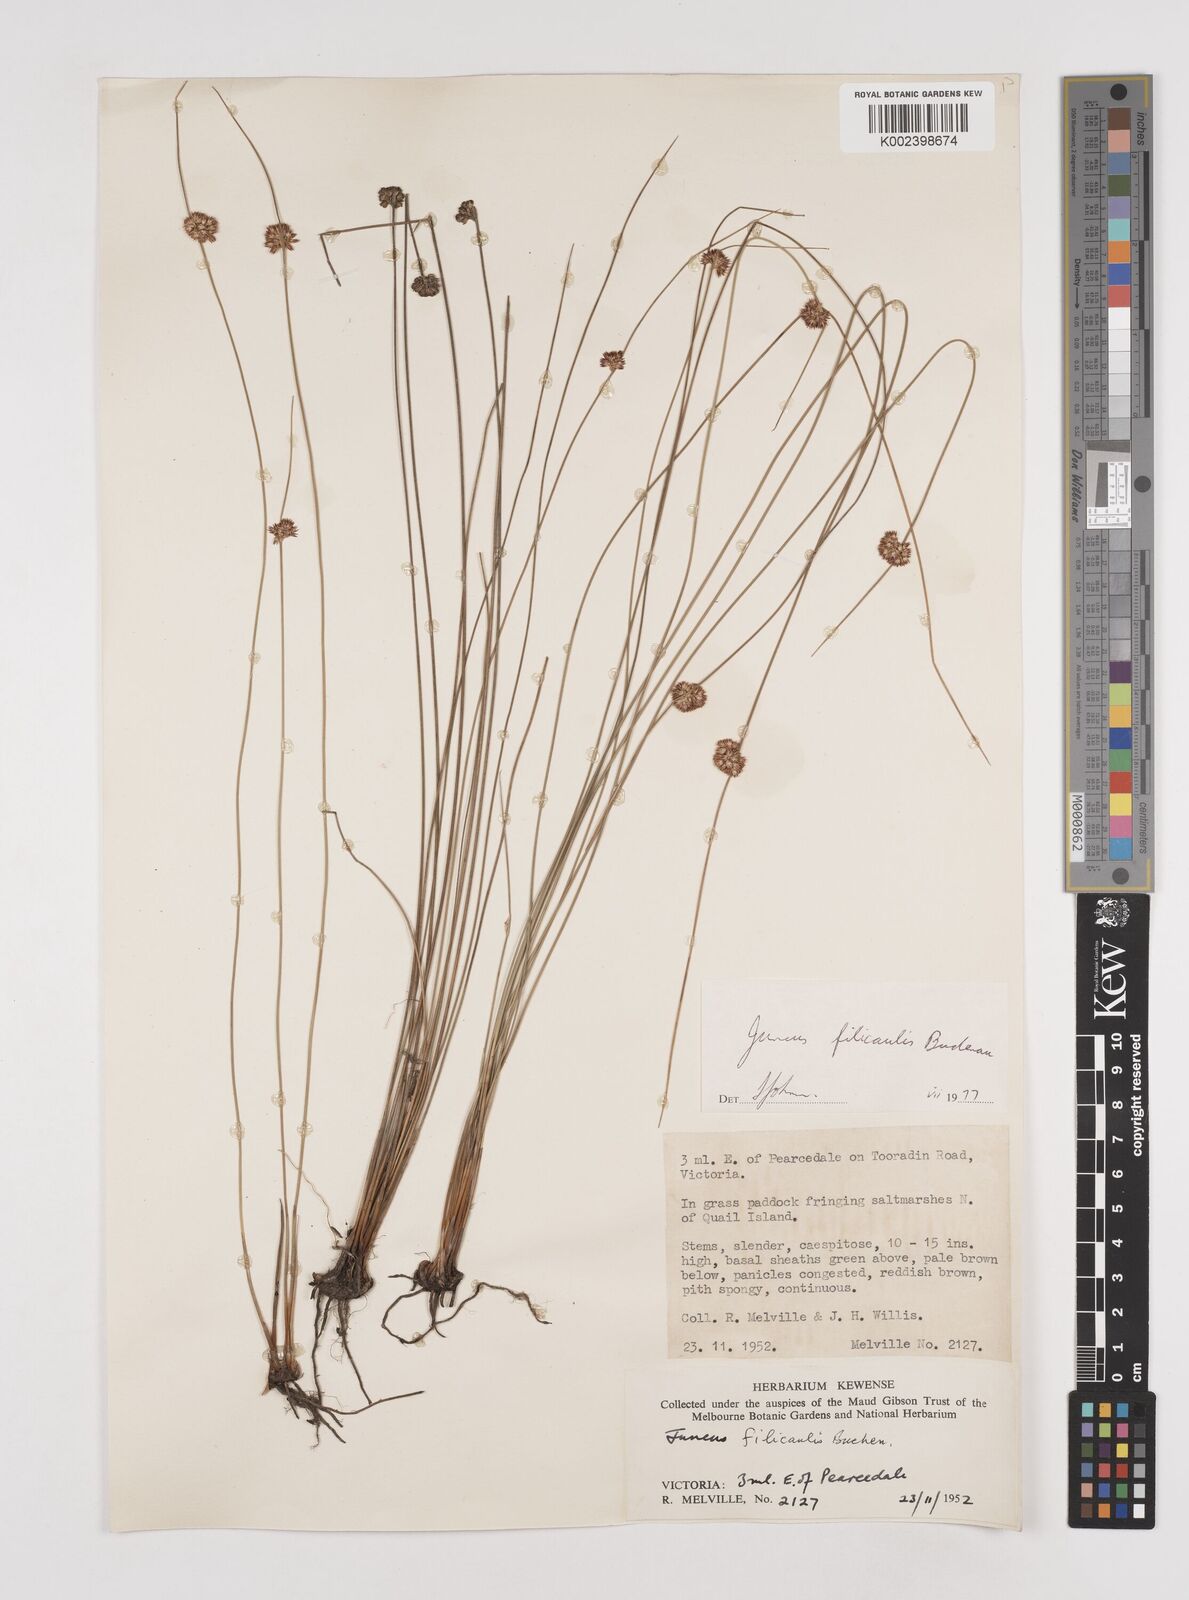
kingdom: Plantae
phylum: Tracheophyta
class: Liliopsida
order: Poales
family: Juncaceae
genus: Juncus
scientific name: Juncus filicaulis
